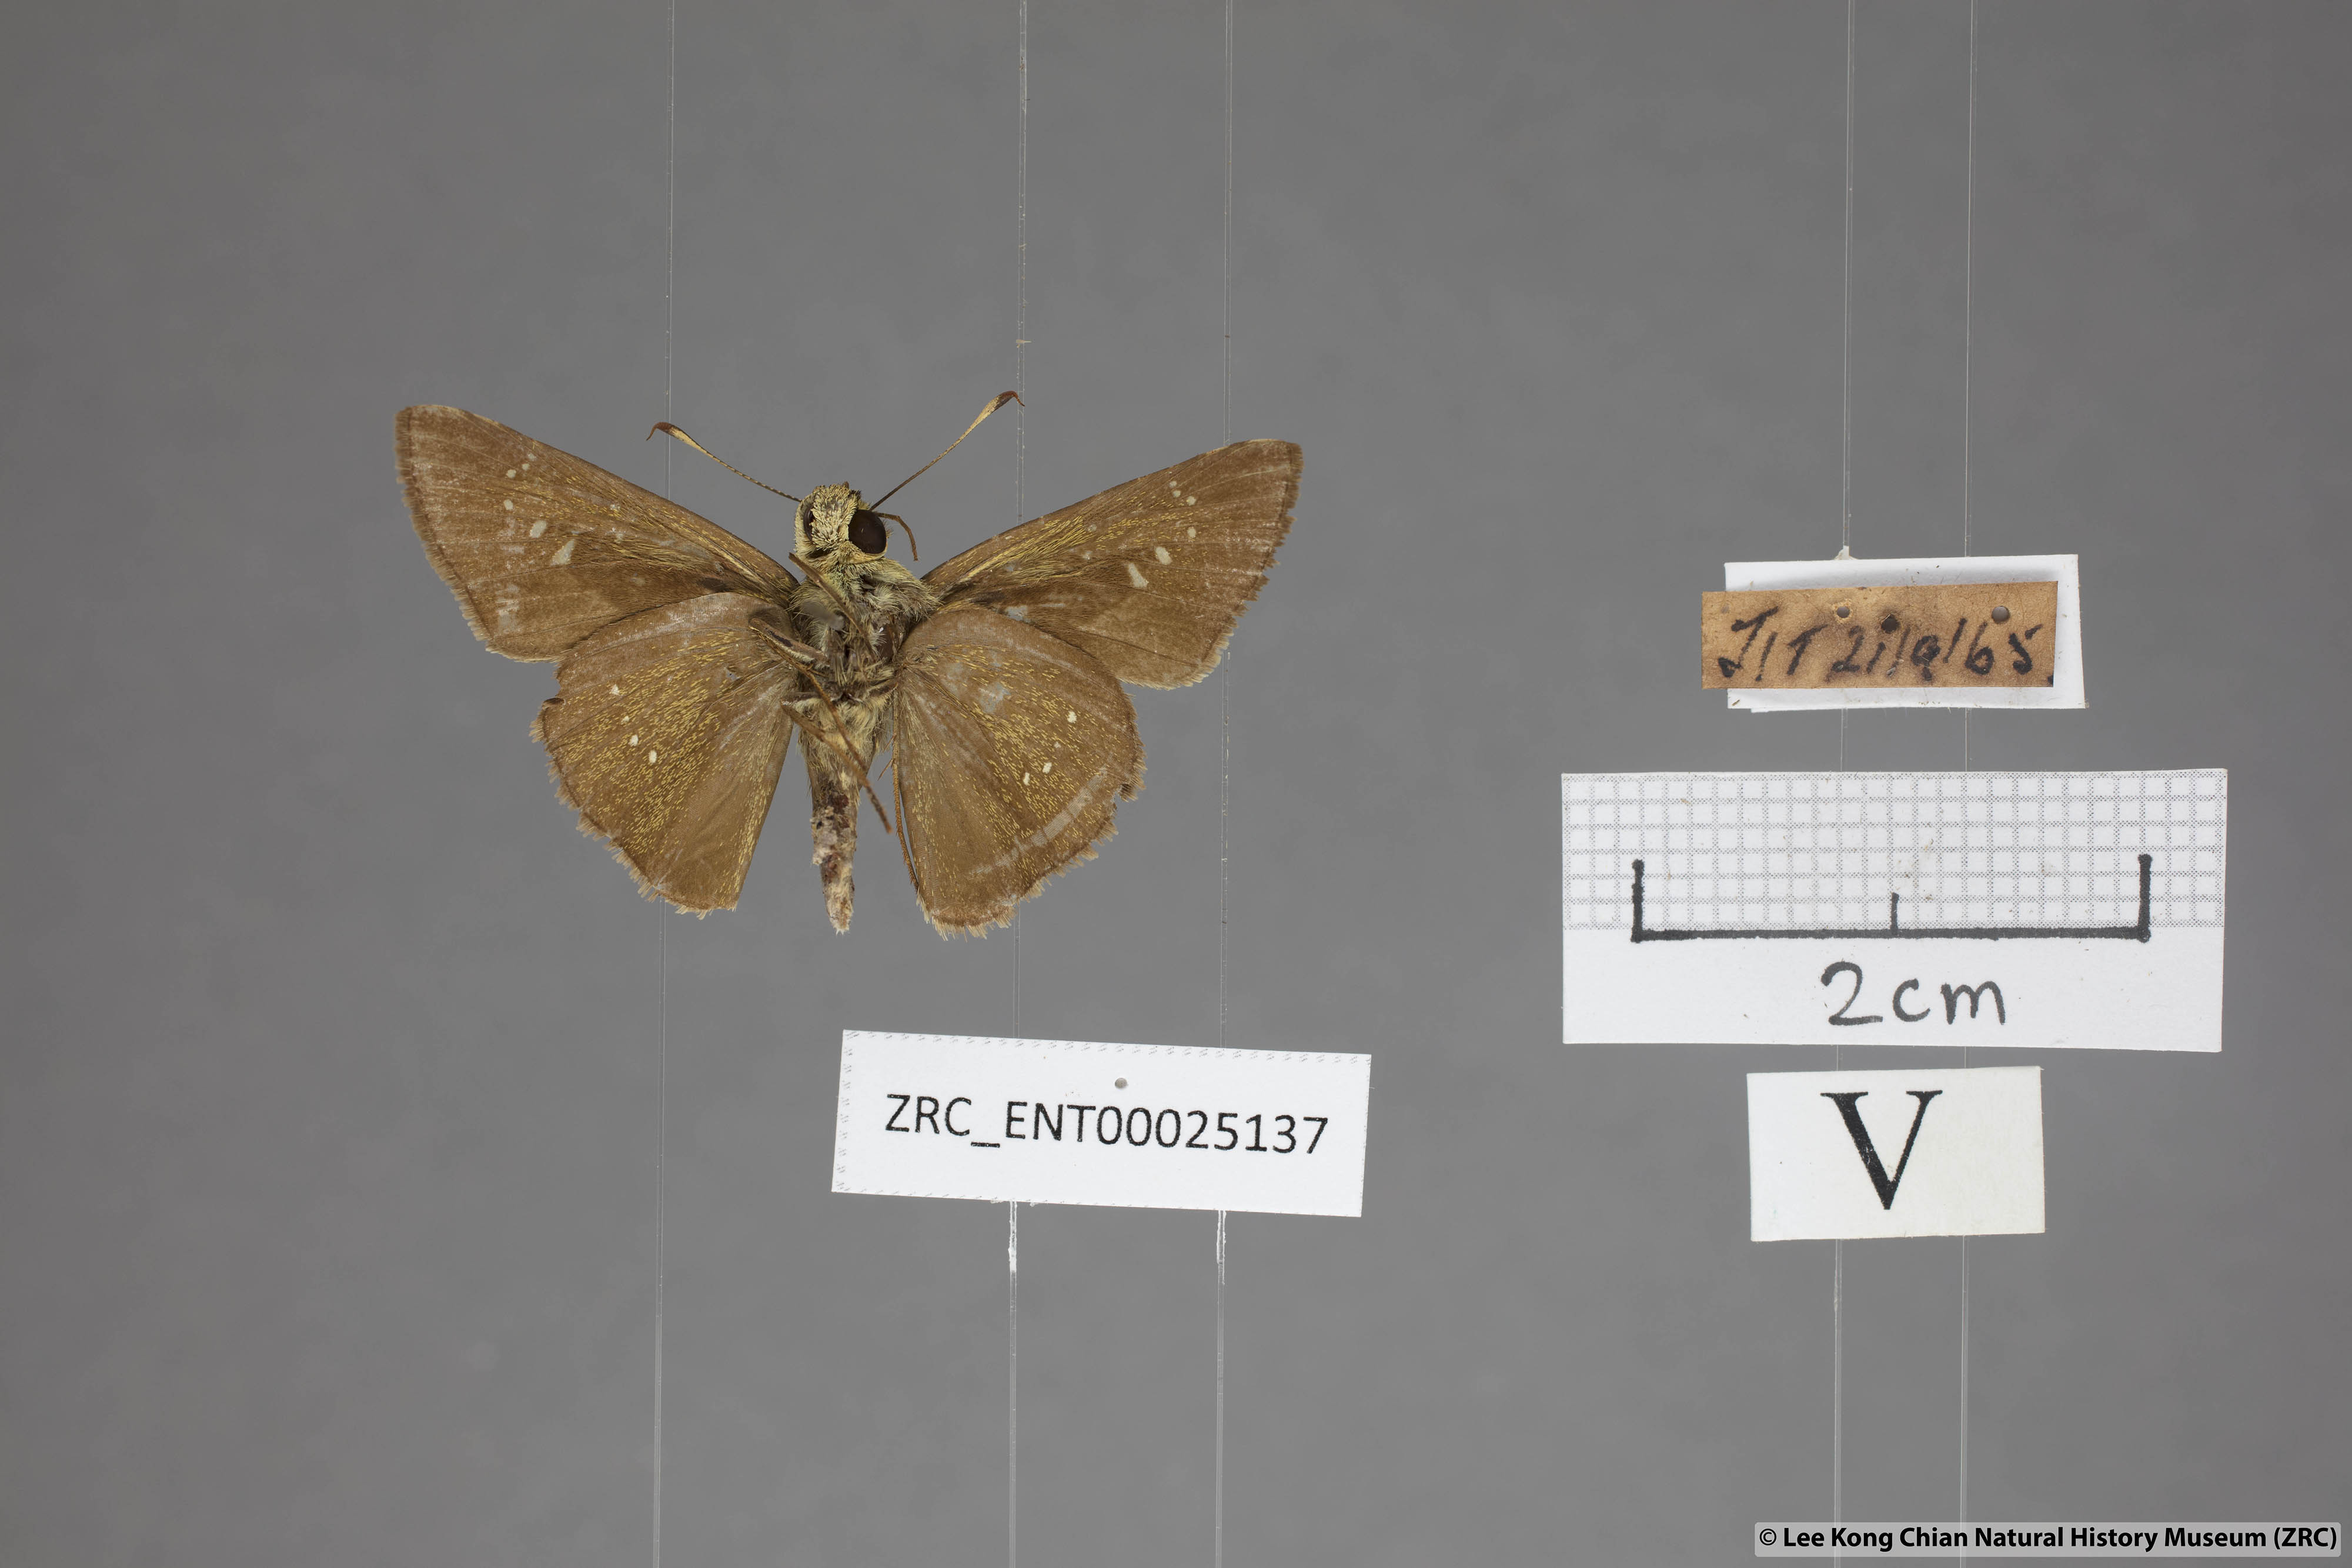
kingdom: Animalia
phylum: Arthropoda
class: Insecta
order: Lepidoptera
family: Hesperiidae
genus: Pelopidas
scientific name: Pelopidas agna
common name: Little branded swift
